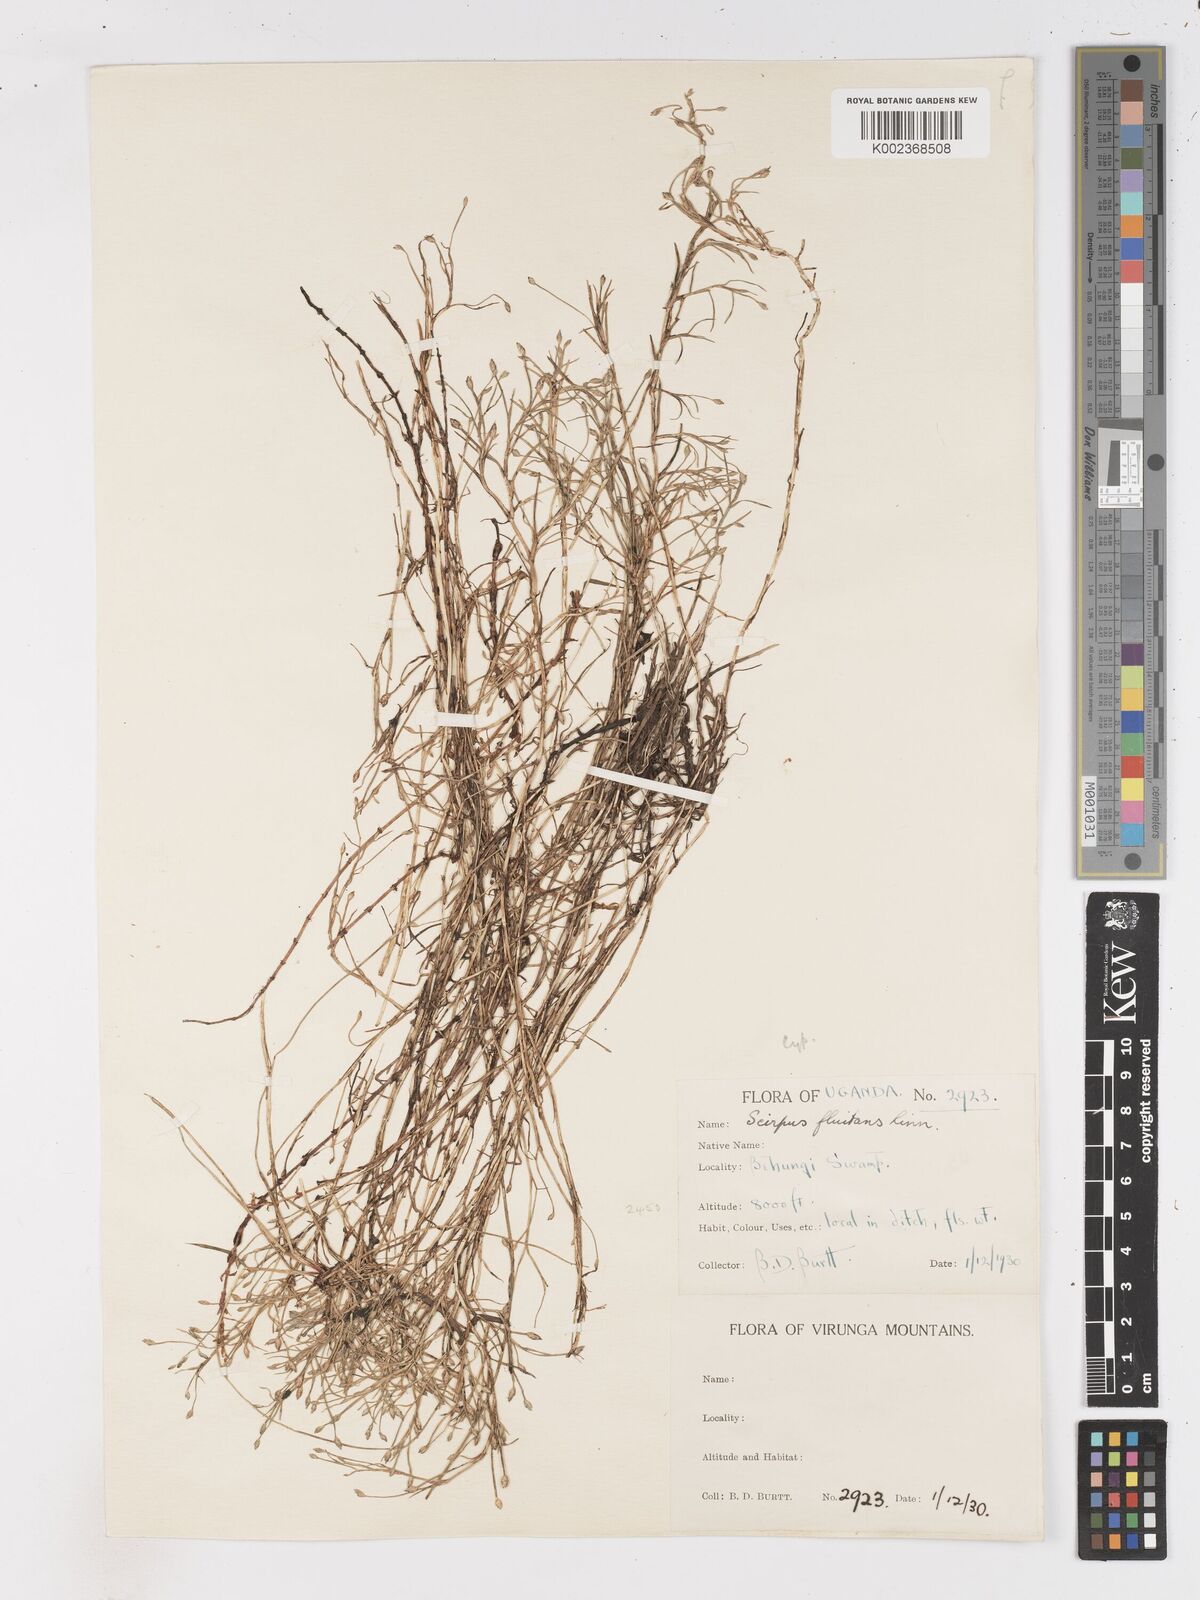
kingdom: Plantae
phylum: Tracheophyta
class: Liliopsida
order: Poales
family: Cyperaceae
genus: Isolepis
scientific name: Isolepis fluitans
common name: Floating club-rush
